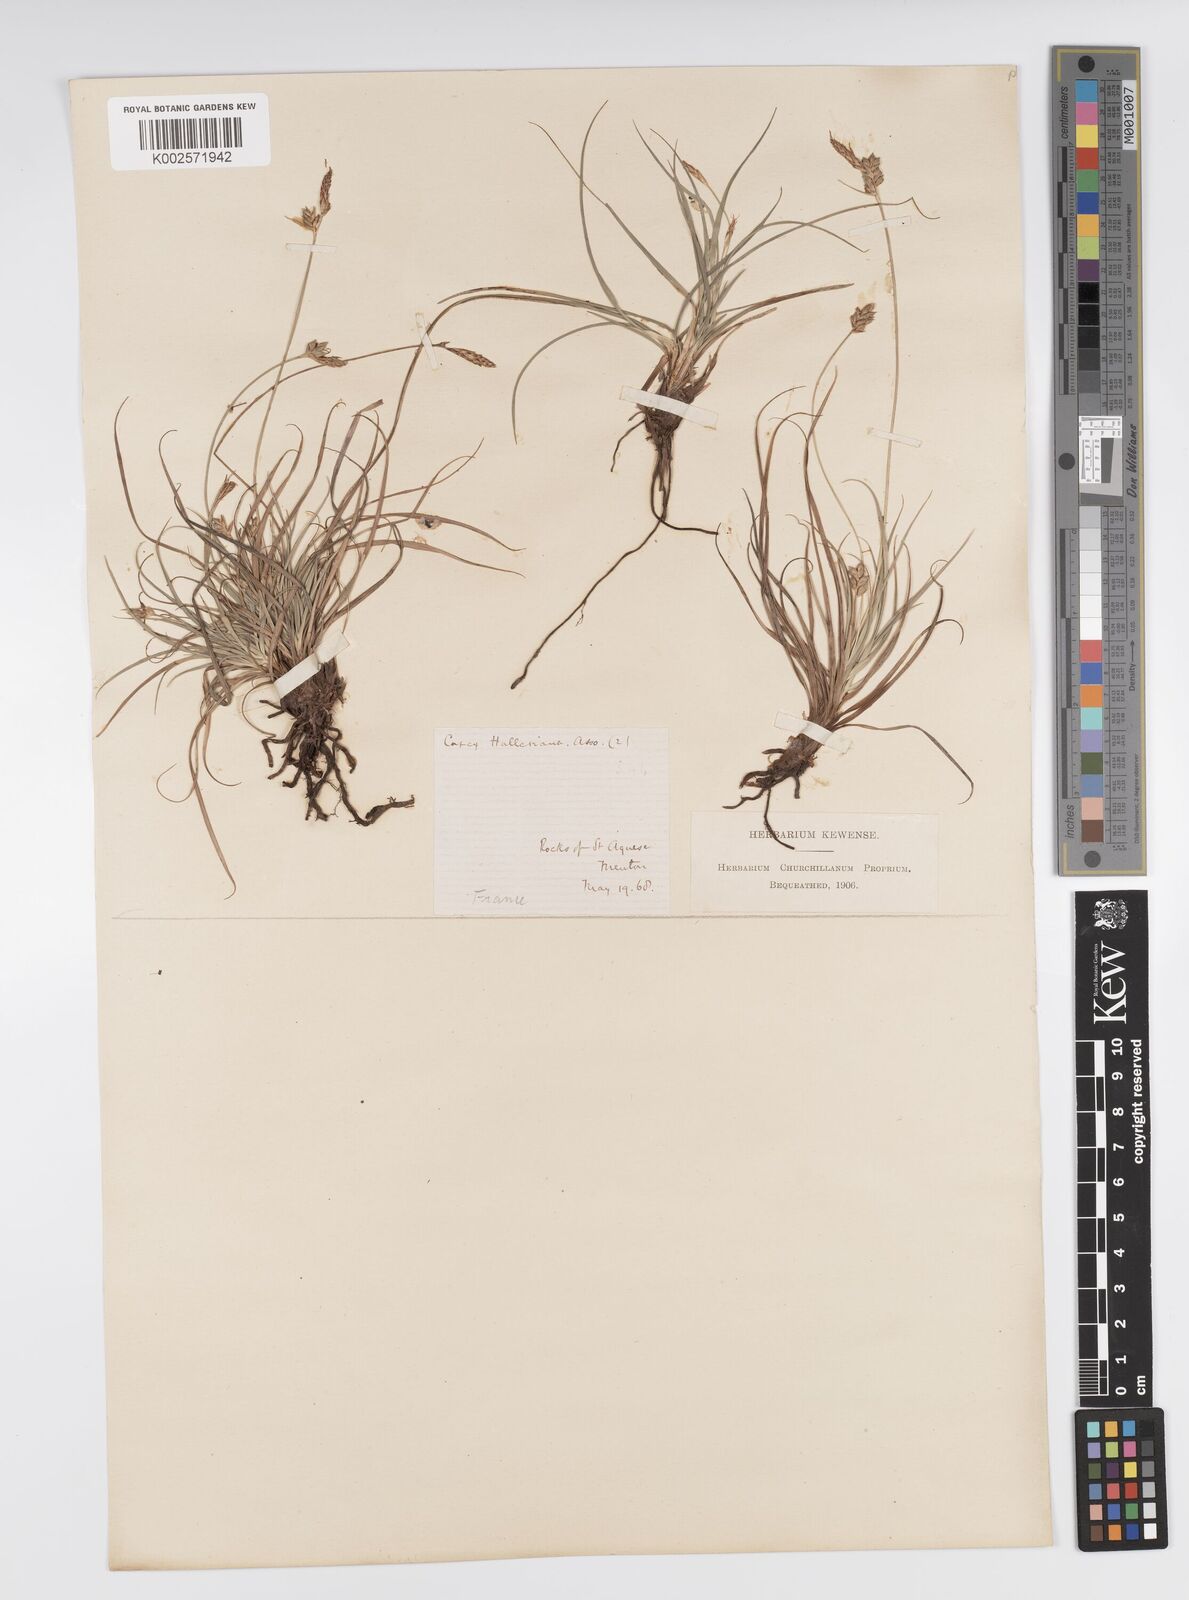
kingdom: Plantae
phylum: Tracheophyta
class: Liliopsida
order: Poales
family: Cyperaceae
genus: Carex
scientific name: Carex halleriana
